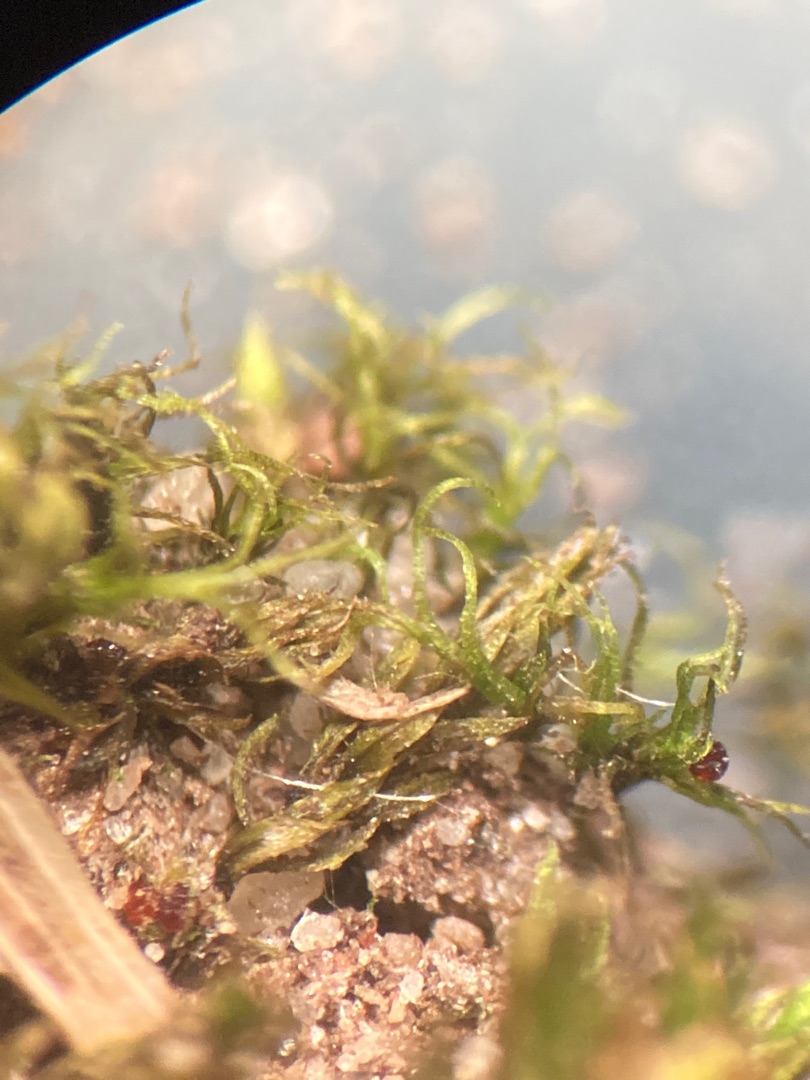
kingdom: Plantae
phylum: Bryophyta
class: Bryopsida
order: Bryales
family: Bryaceae
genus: Rosulabryum
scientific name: Rosulabryum rubens
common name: Mark-bryum
